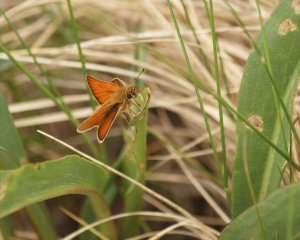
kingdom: Animalia
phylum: Arthropoda
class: Insecta
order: Lepidoptera
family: Hesperiidae
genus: Thymelicus
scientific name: Thymelicus lineola
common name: European Skipper
